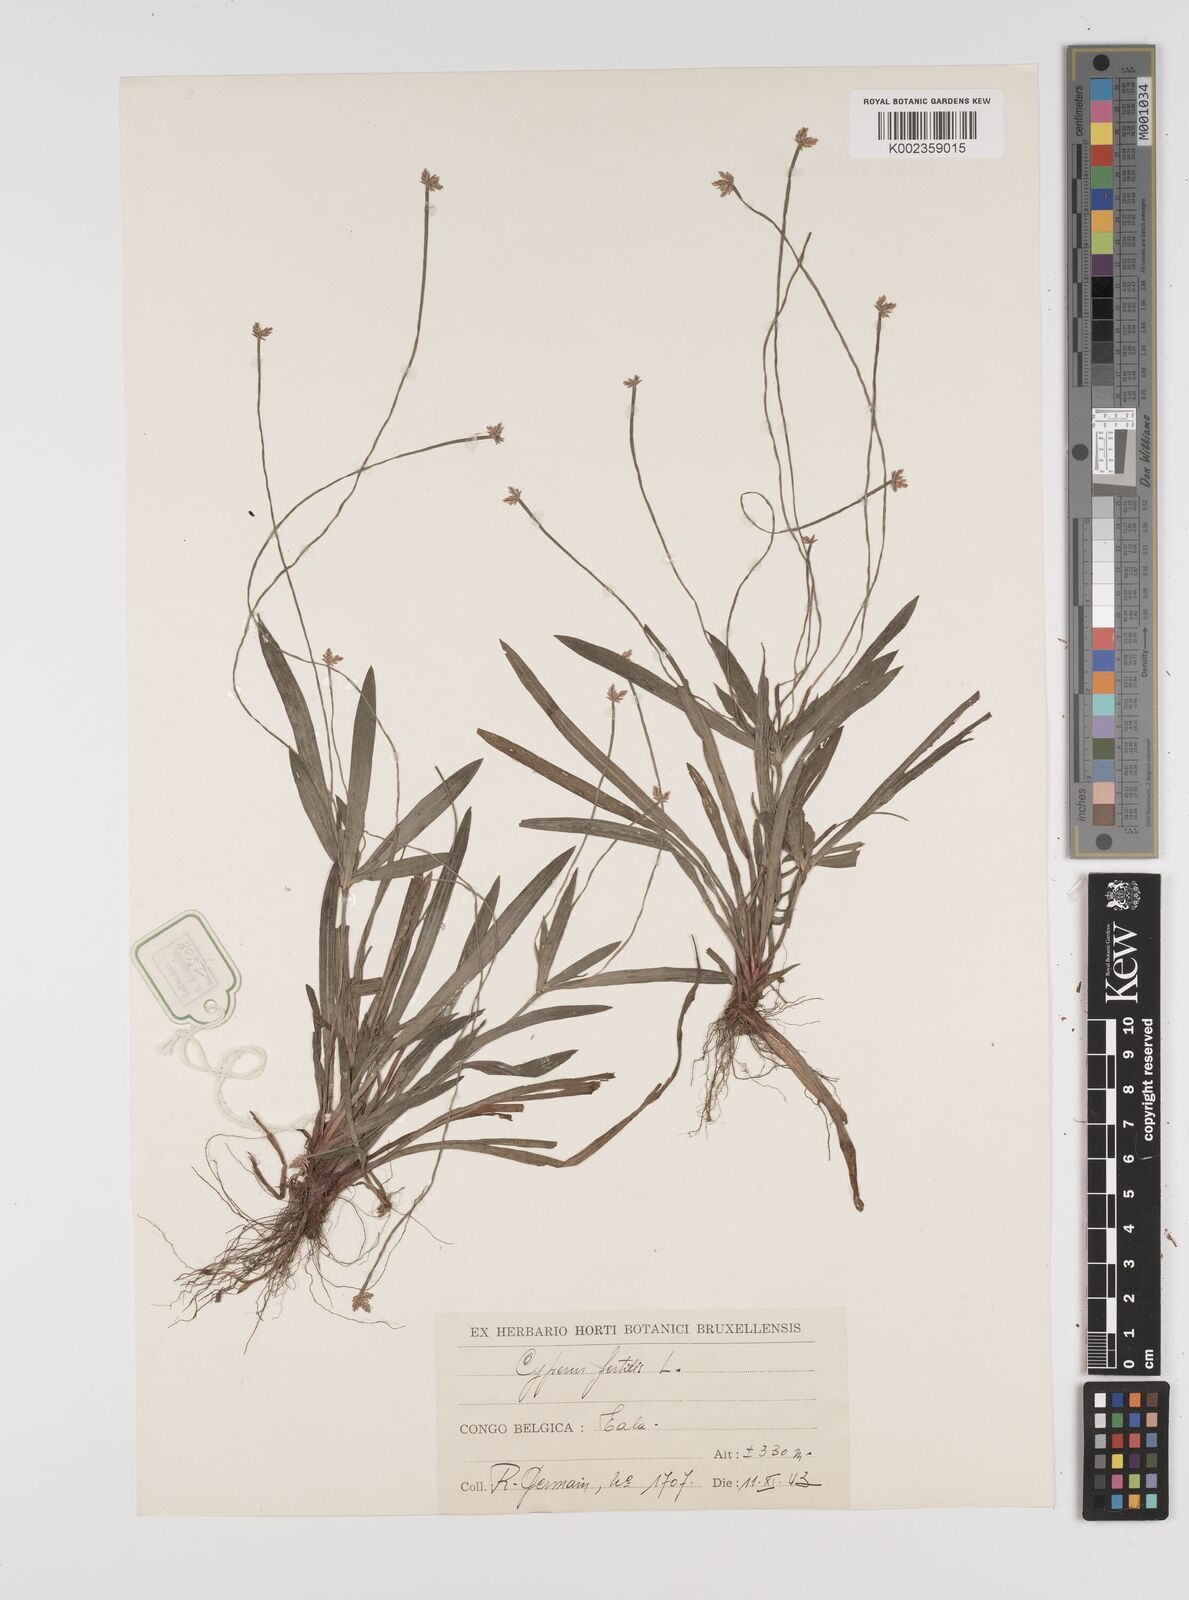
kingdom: Plantae
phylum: Tracheophyta
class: Liliopsida
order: Poales
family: Cyperaceae
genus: Cyperus
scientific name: Cyperus fertilis
